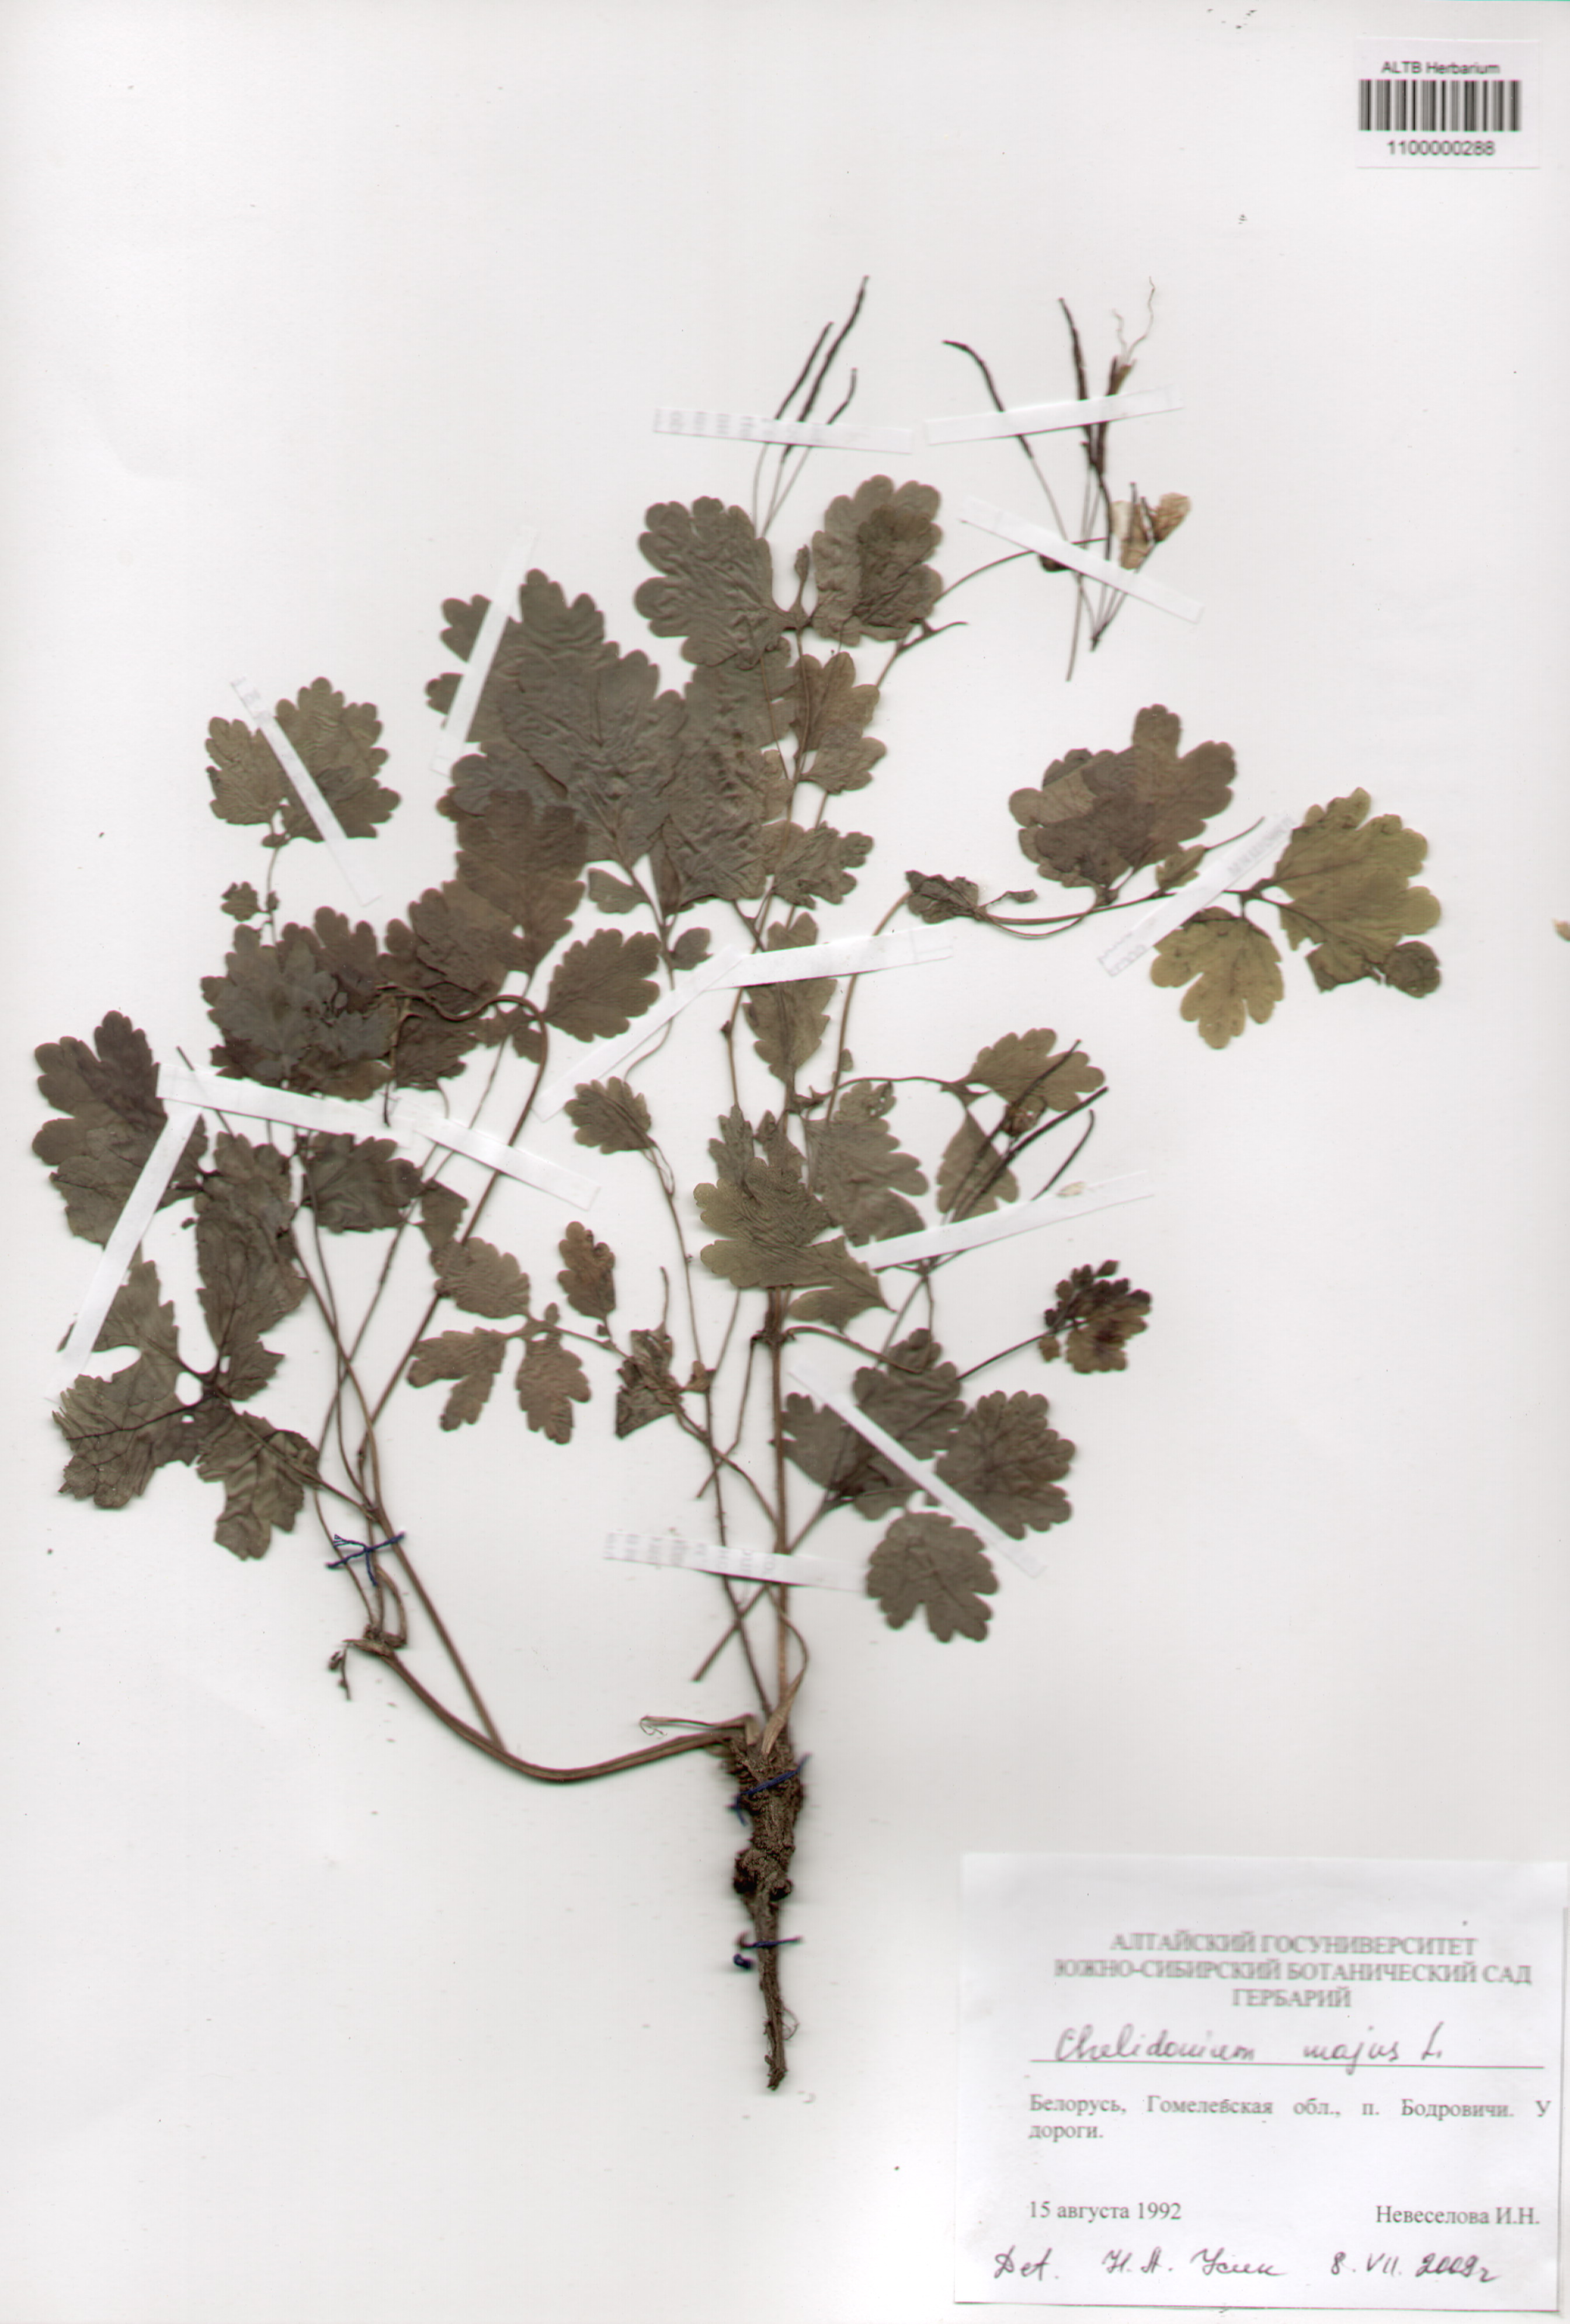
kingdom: Plantae
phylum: Tracheophyta
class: Magnoliopsida
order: Ranunculales
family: Papaveraceae
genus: Chelidonium
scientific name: Chelidonium majus
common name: Greater celandine
